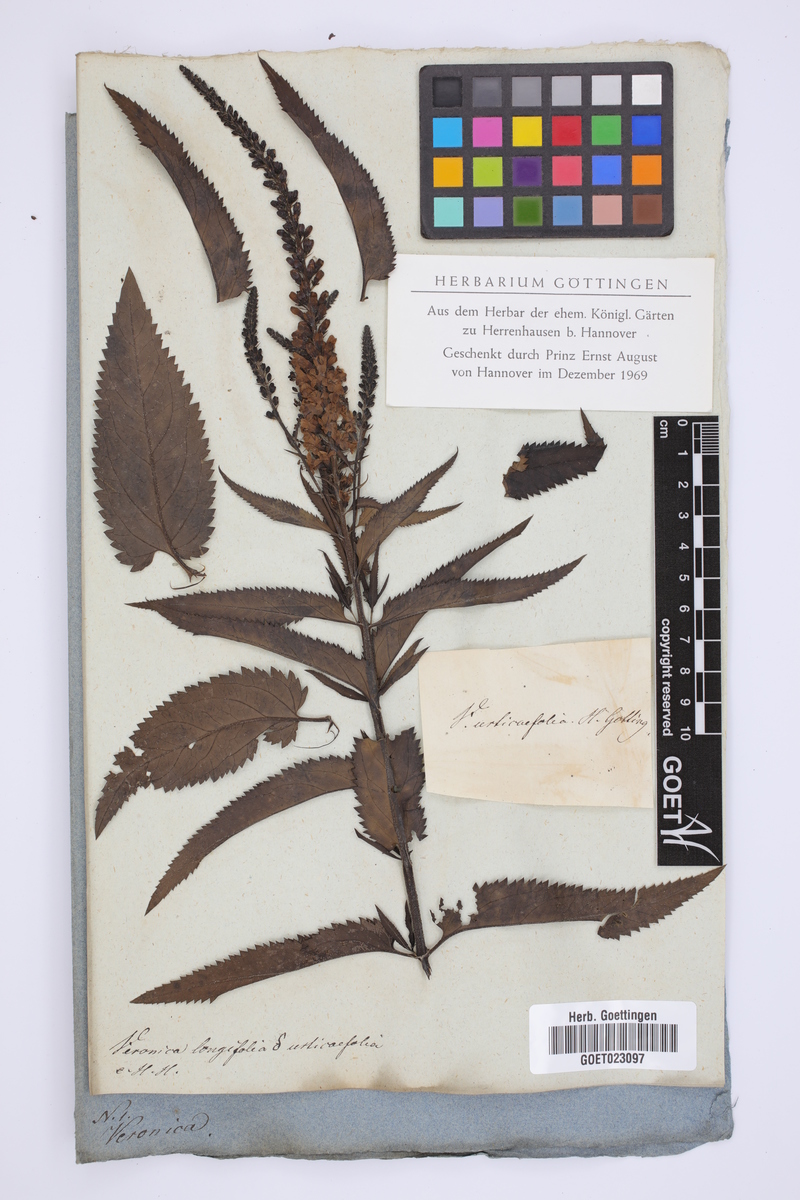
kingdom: Plantae
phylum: Tracheophyta
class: Magnoliopsida
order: Lamiales
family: Plantaginaceae
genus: Veronica
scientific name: Veronica urticifolia
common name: Nettle-leaf speedwell
